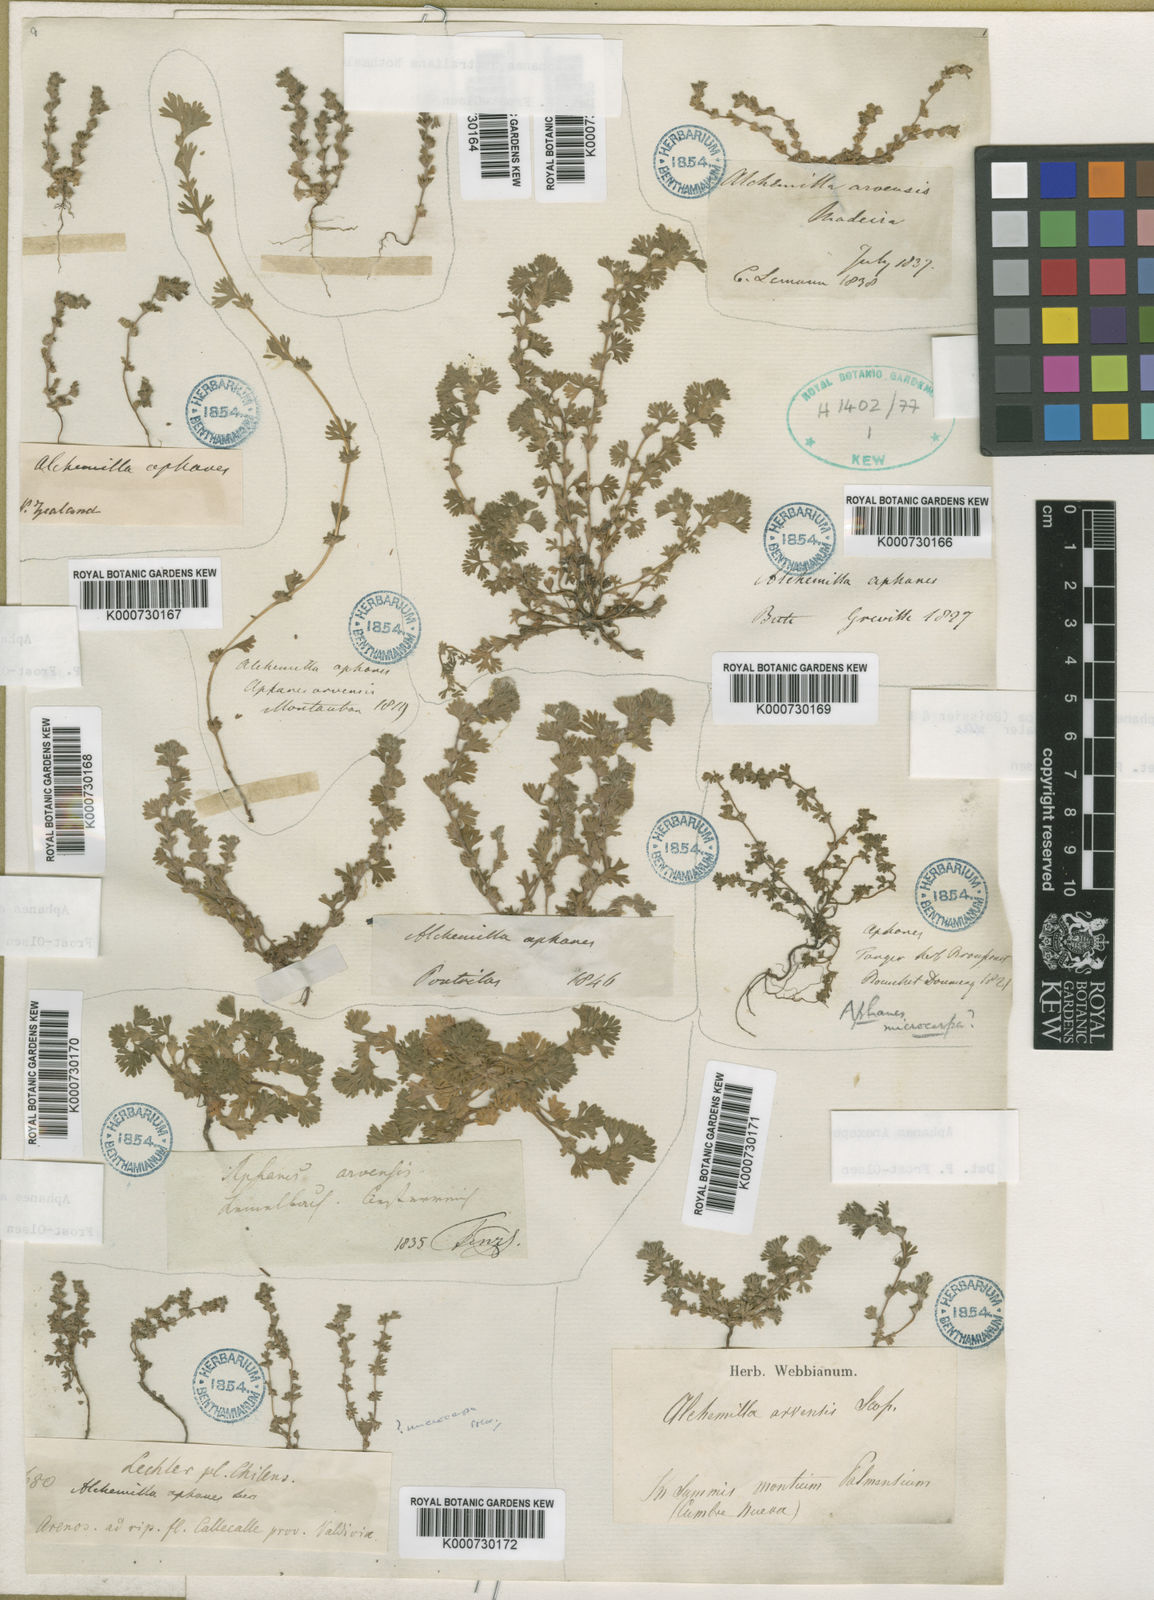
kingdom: Plantae
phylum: Tracheophyta
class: Magnoliopsida
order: Rosales
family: Rosaceae
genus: Aphanes
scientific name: Aphanes minutiflora
